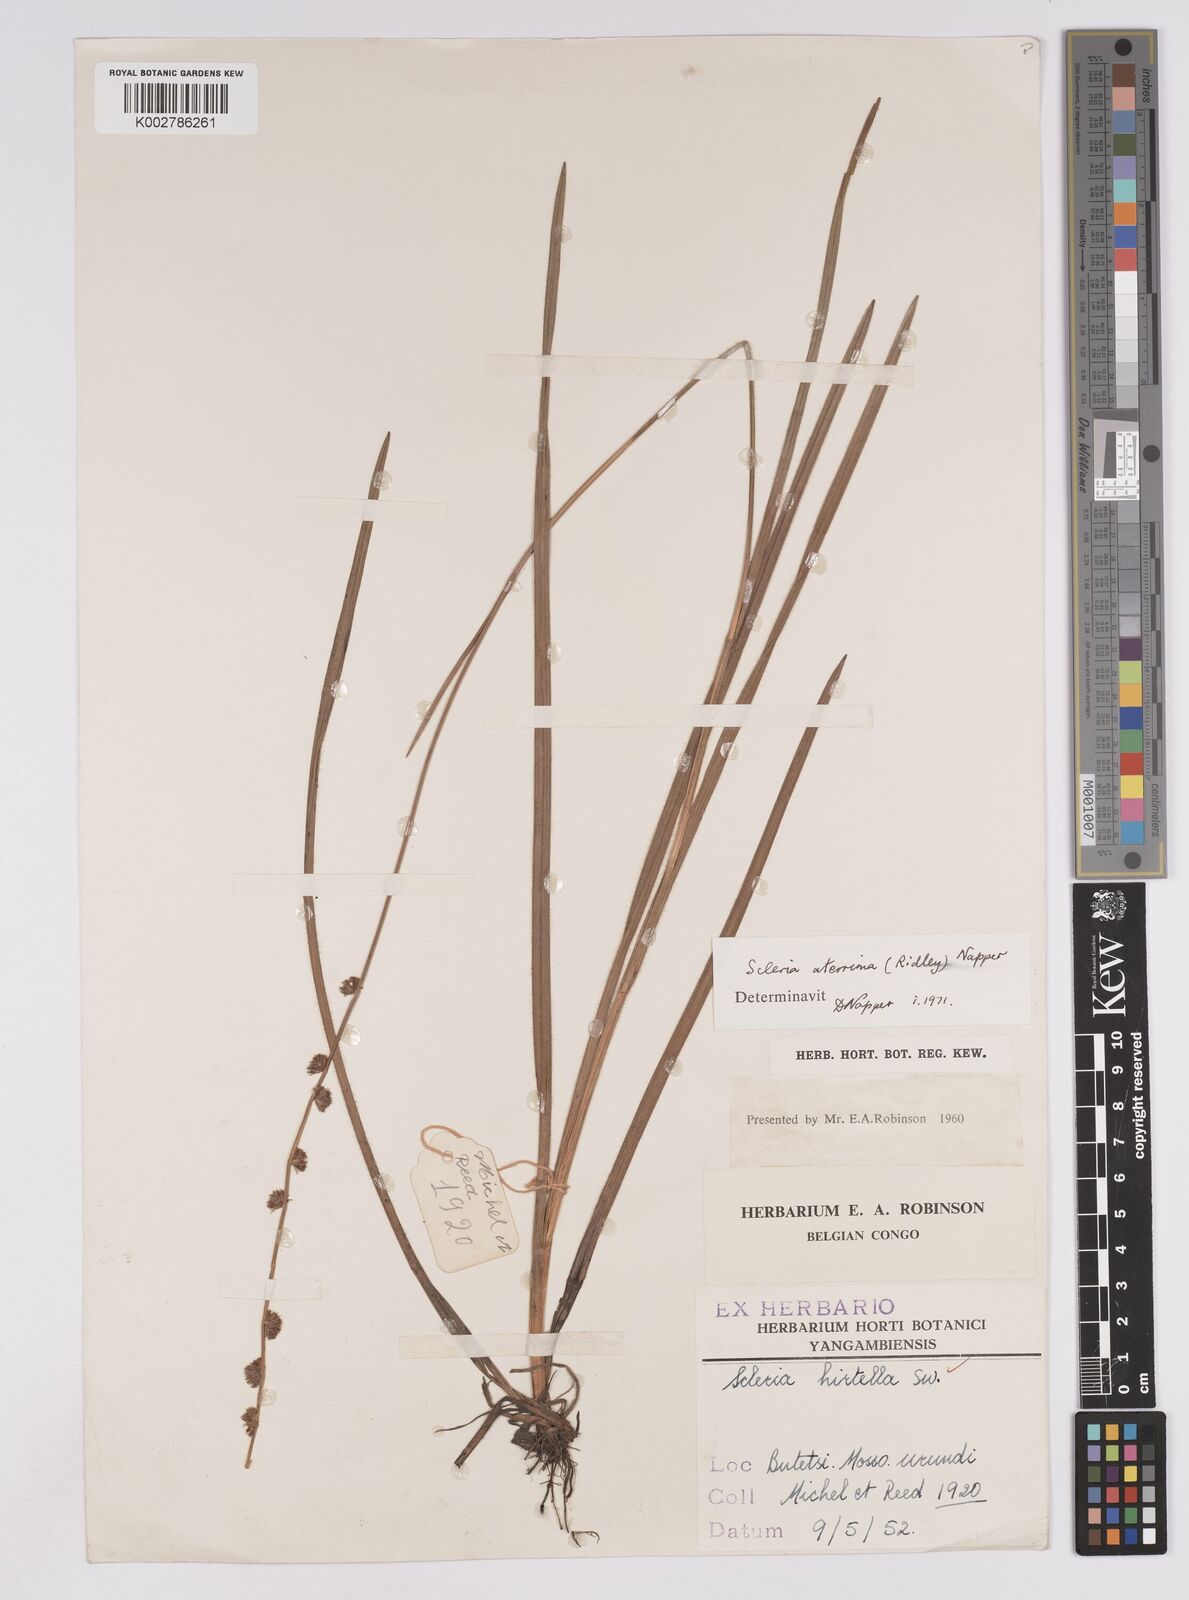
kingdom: Plantae
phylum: Tracheophyta
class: Liliopsida
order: Poales
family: Cyperaceae
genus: Scleria
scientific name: Scleria catophylla
